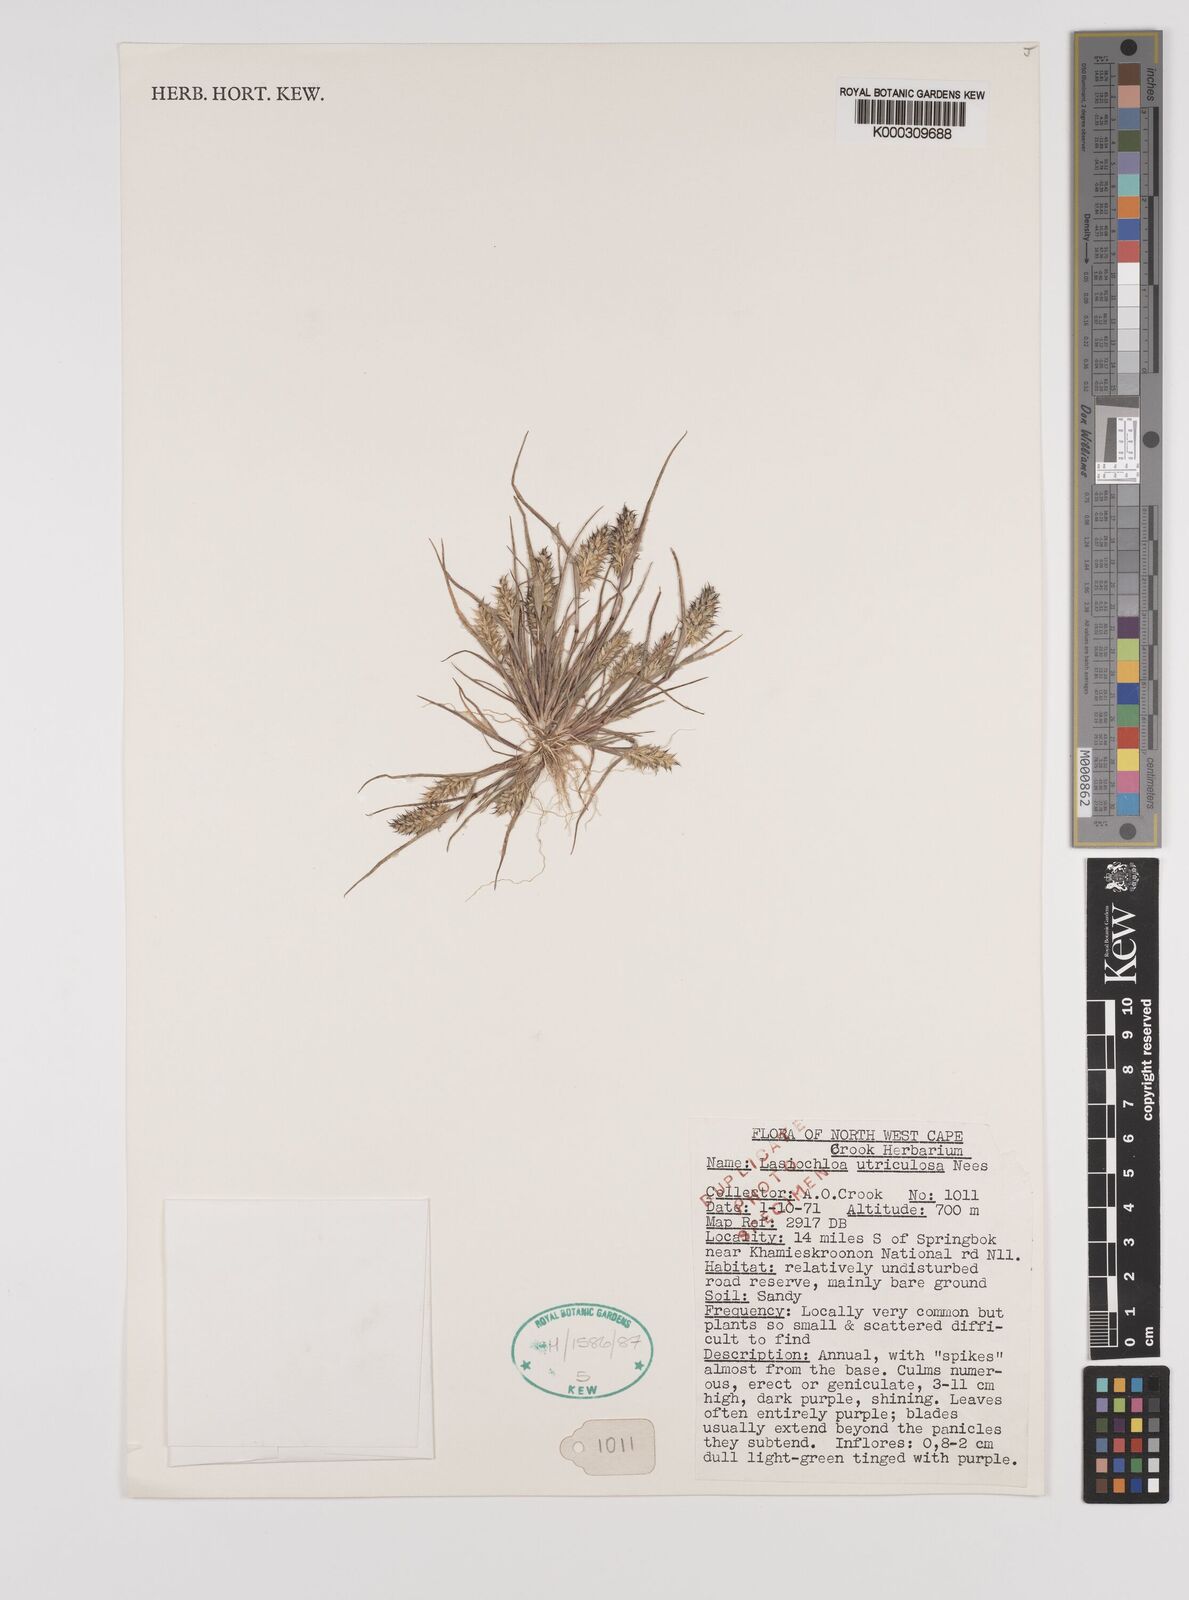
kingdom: Plantae
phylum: Tracheophyta
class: Liliopsida
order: Poales
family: Poaceae
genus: Tribolium
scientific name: Tribolium utriculosum
